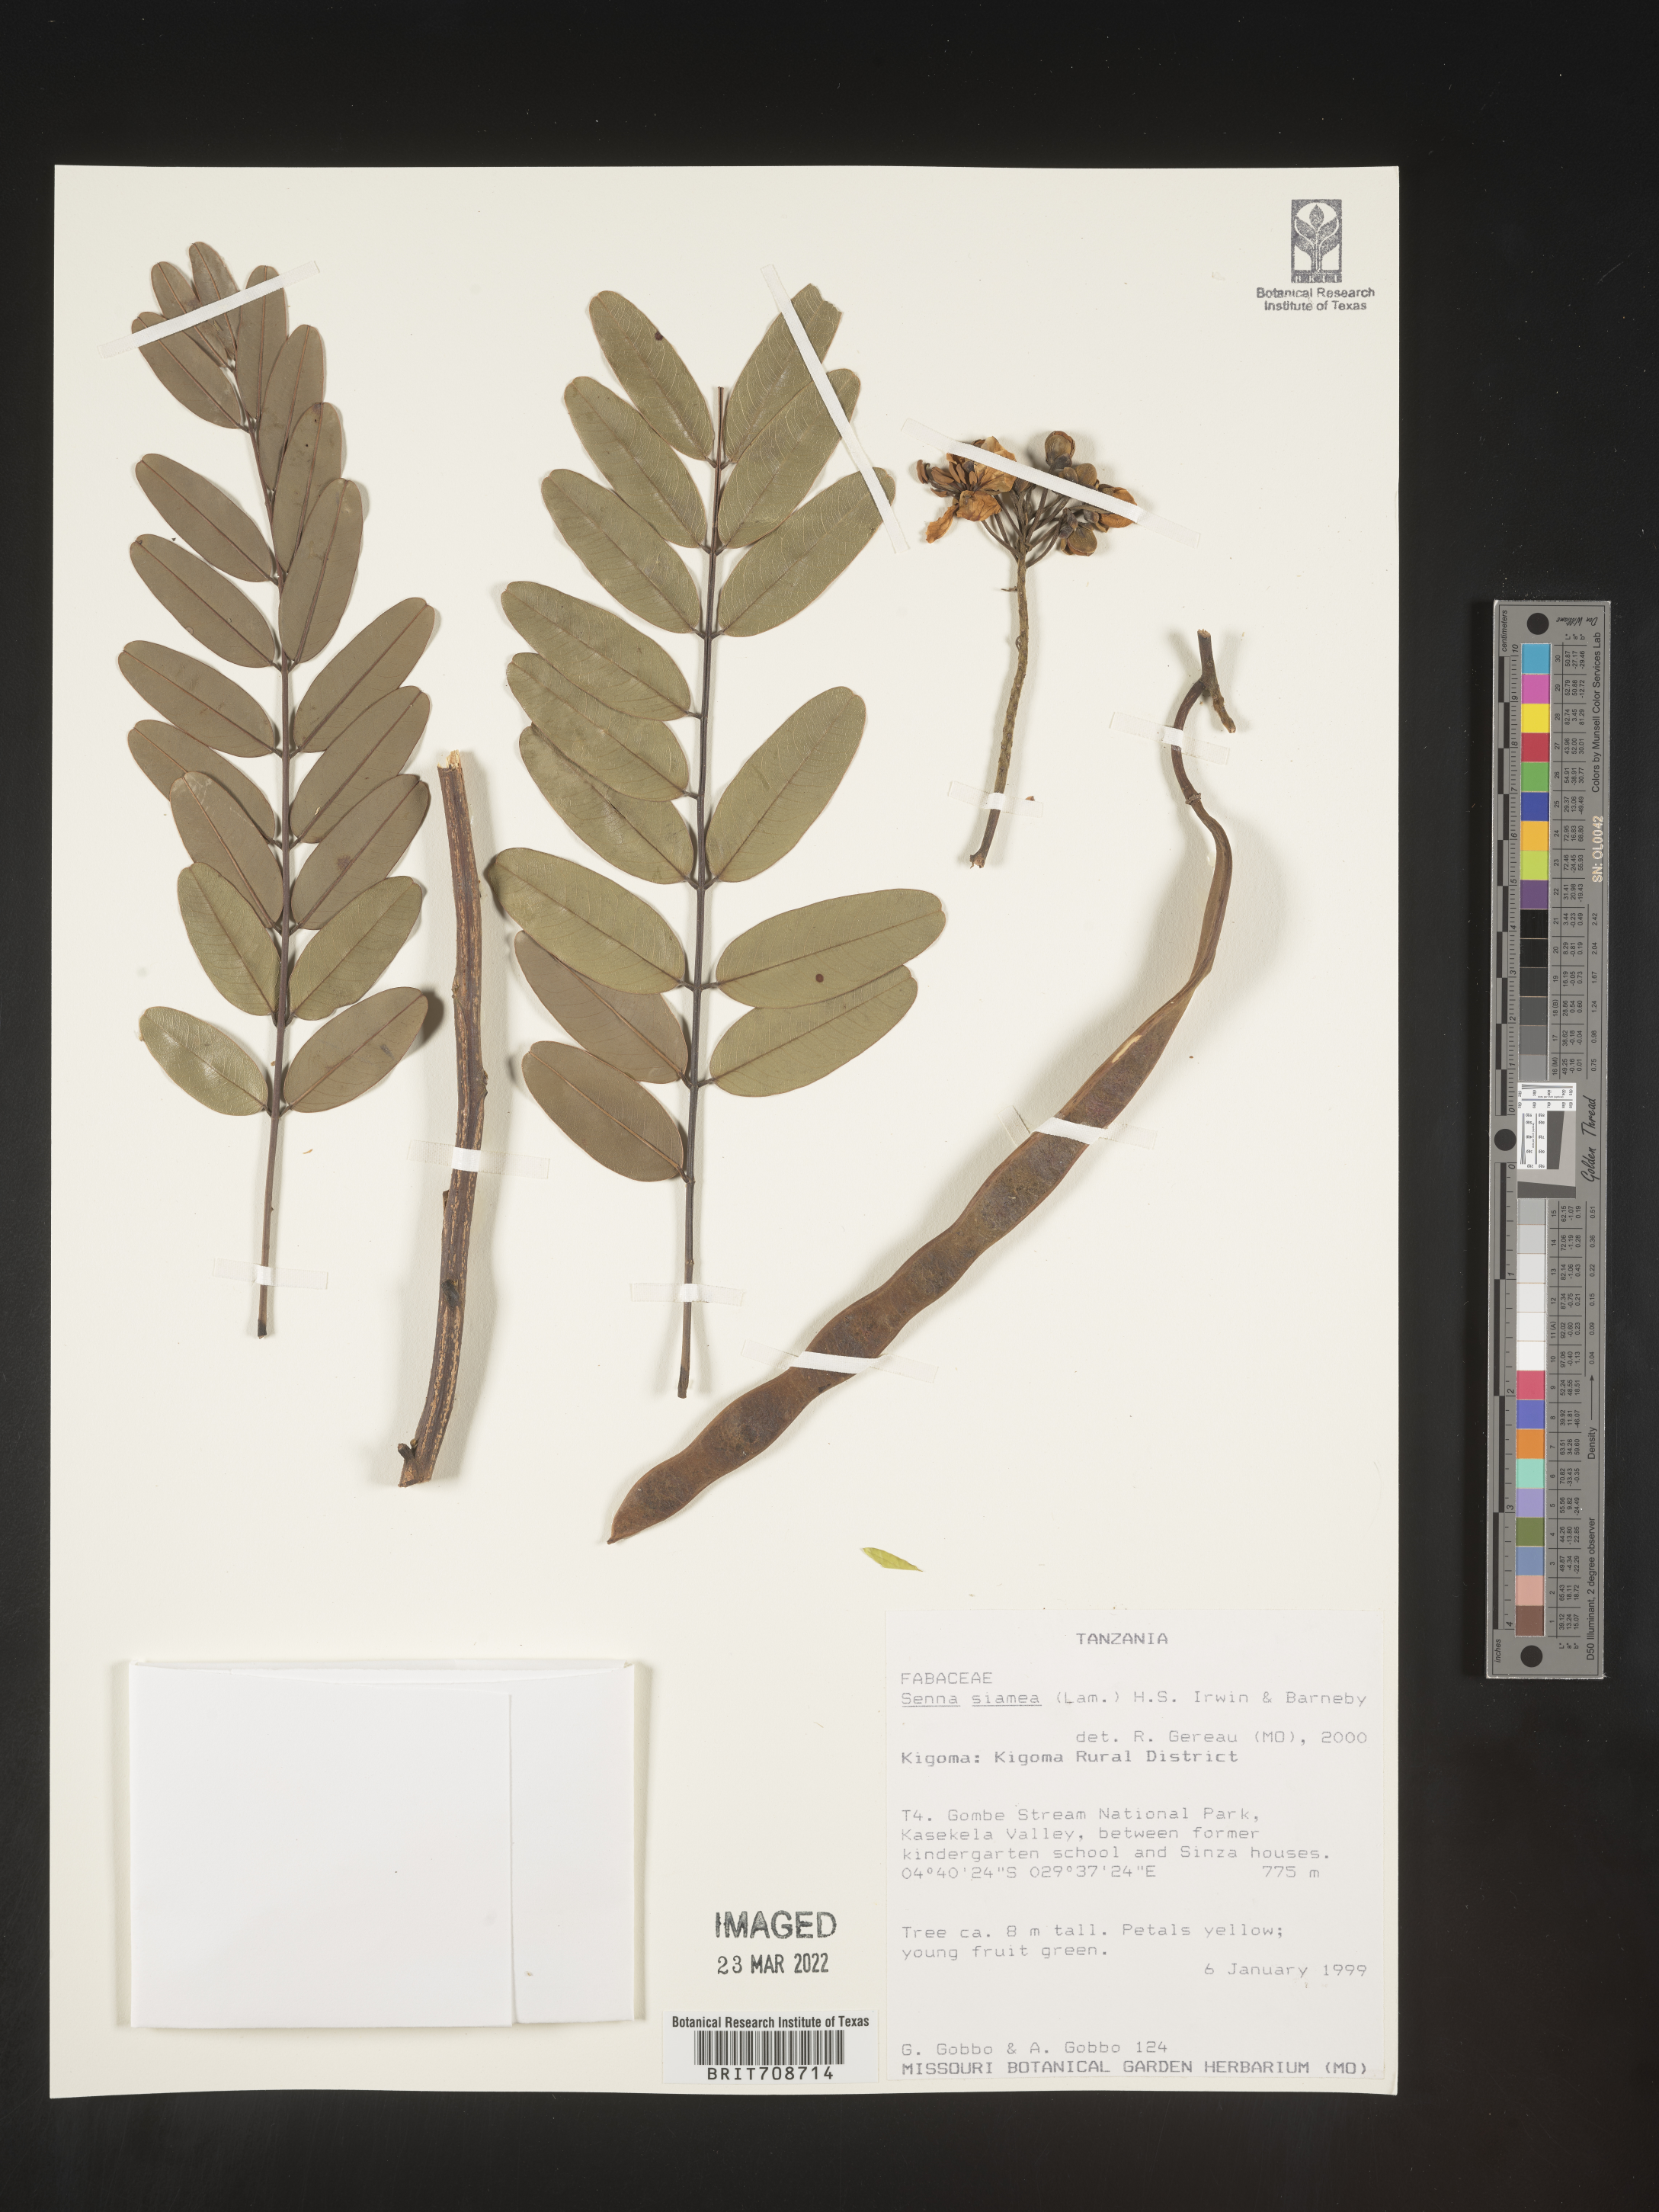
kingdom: Plantae
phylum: Tracheophyta
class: Magnoliopsida
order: Fabales
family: Fabaceae
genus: Senna
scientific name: Senna
